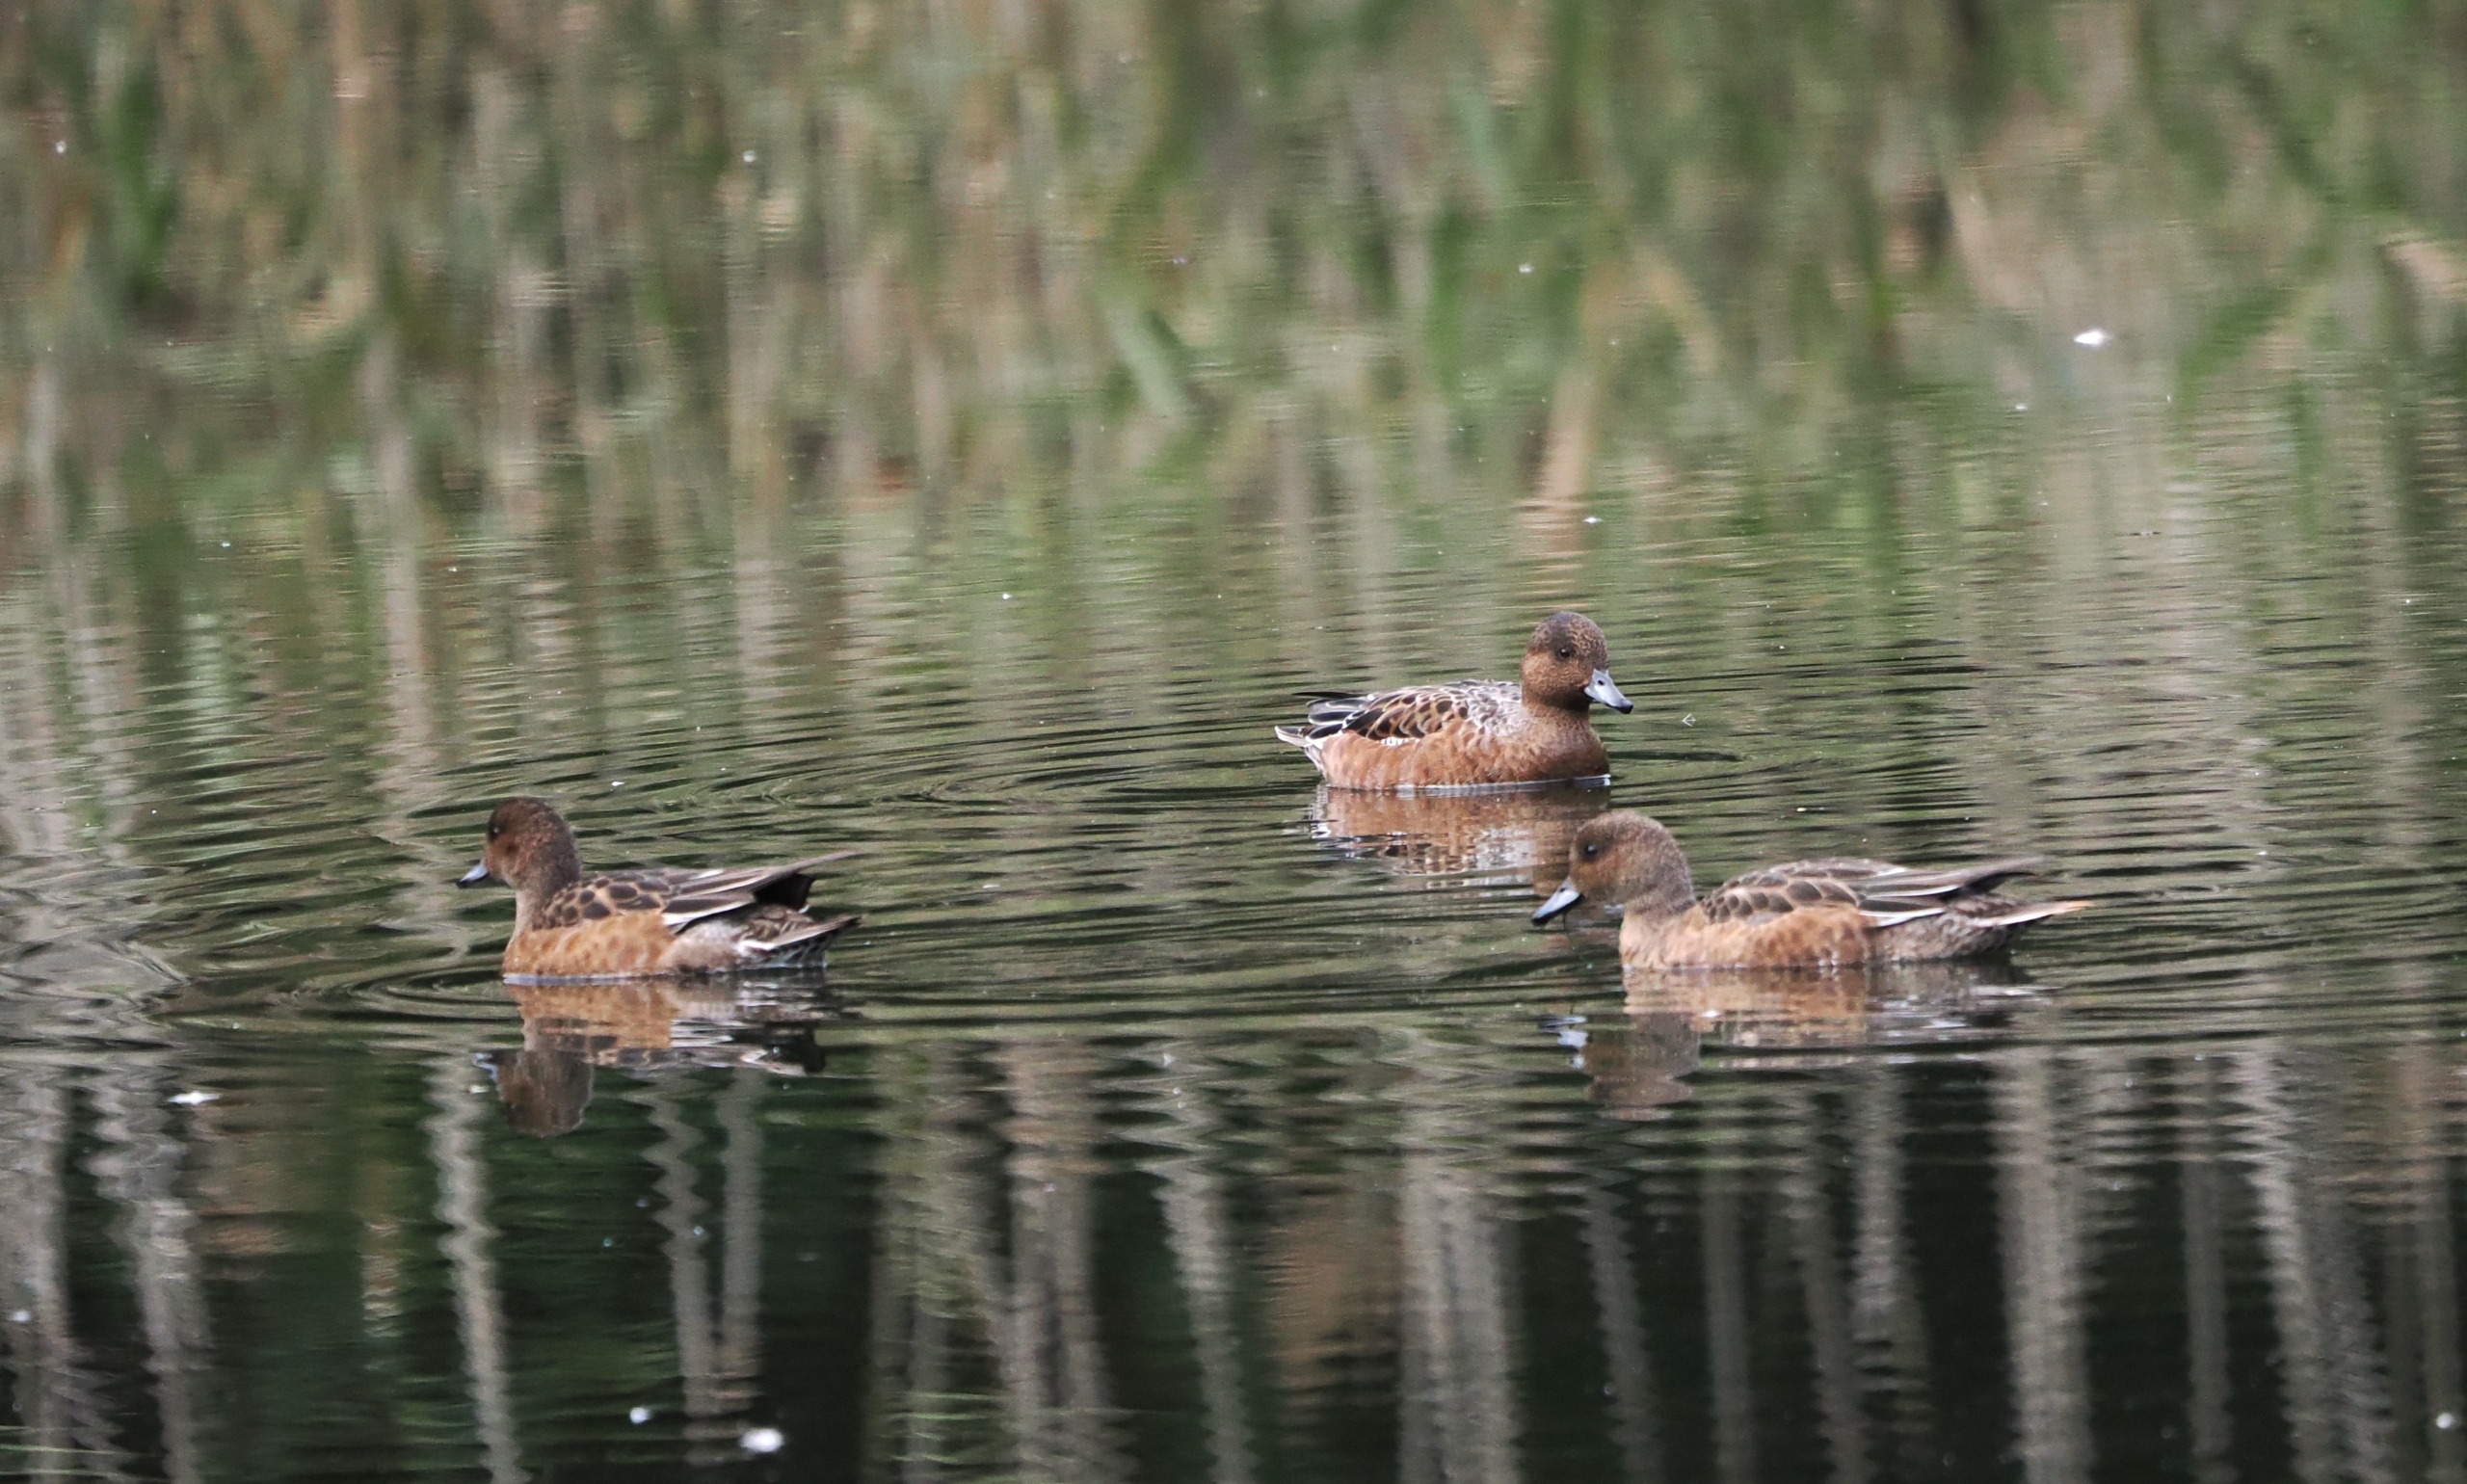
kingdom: Animalia
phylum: Chordata
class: Aves
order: Anseriformes
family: Anatidae
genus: Mareca
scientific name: Mareca penelope
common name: Pibeand
